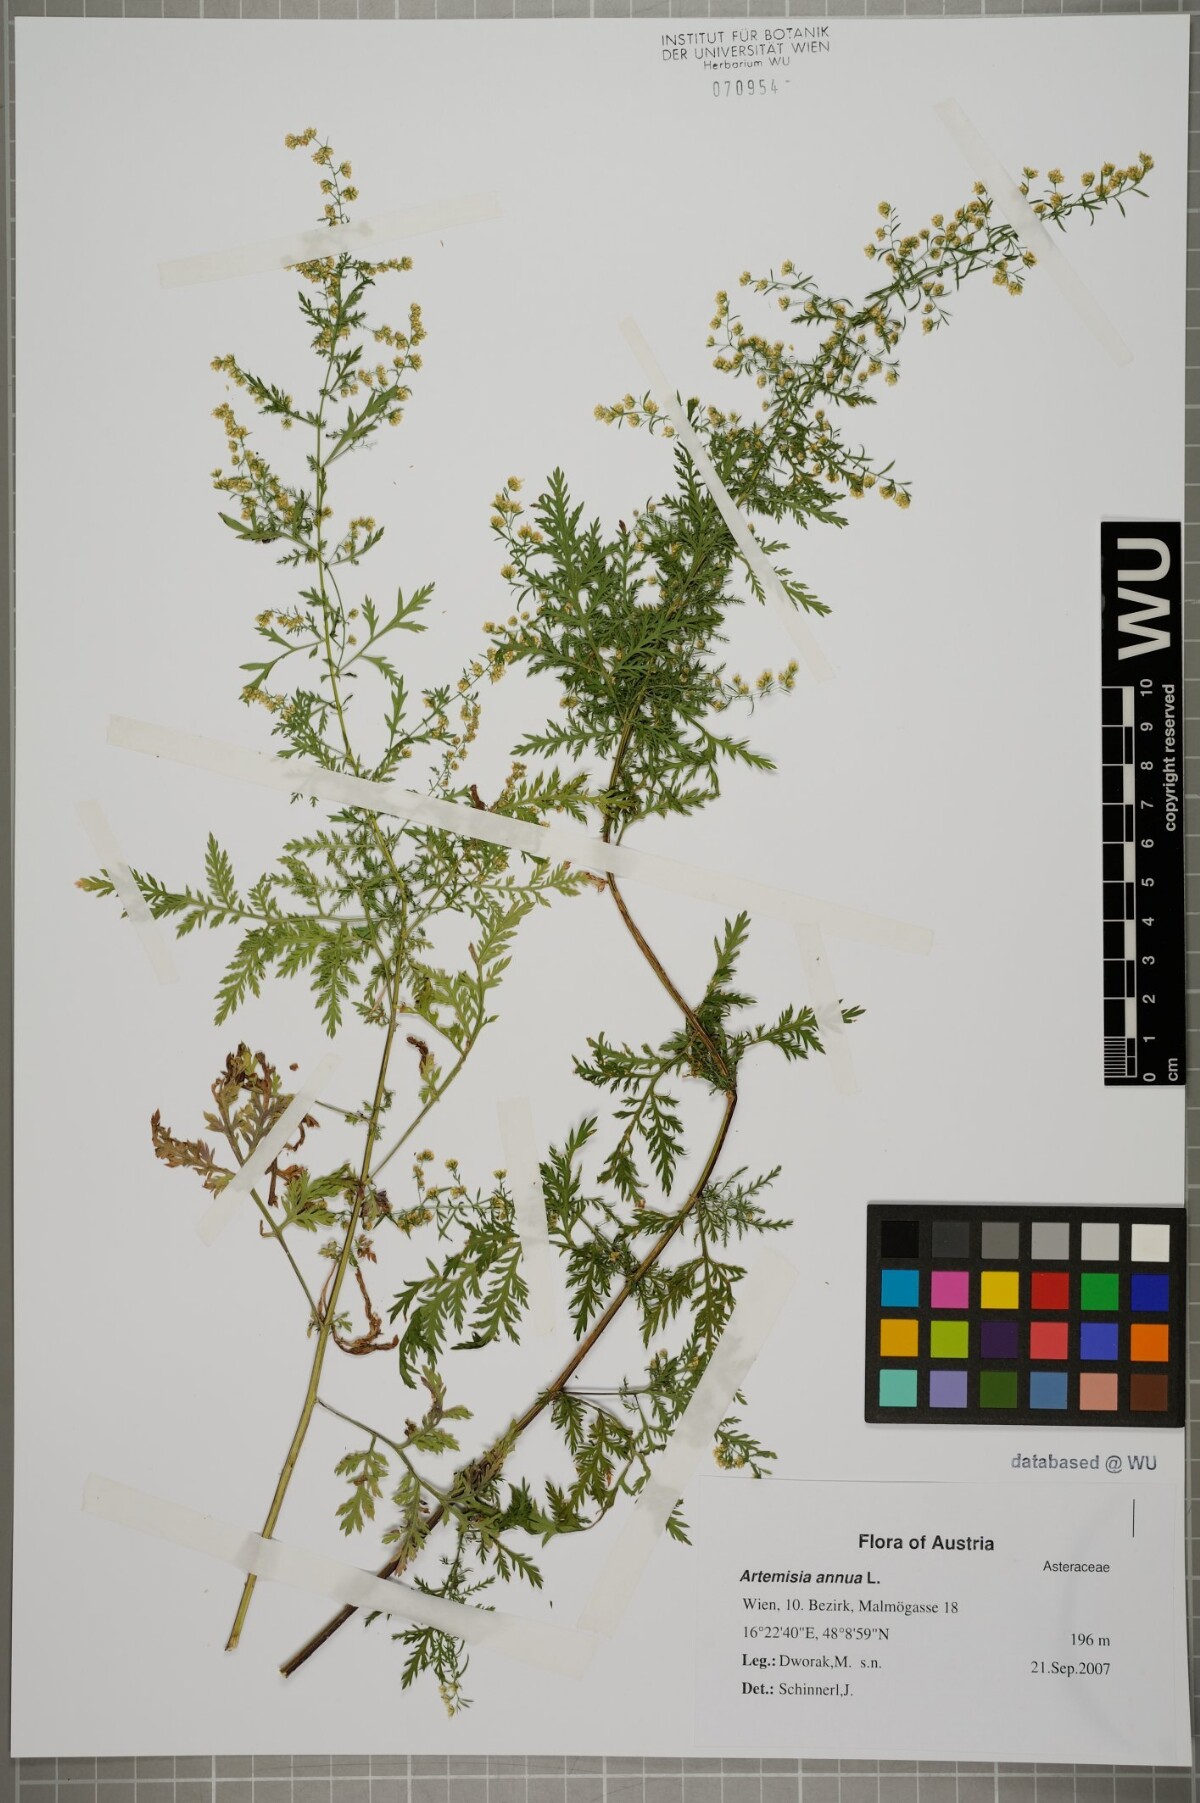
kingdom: Plantae
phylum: Tracheophyta
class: Magnoliopsida
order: Asterales
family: Asteraceae
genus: Artemisia
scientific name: Artemisia annua
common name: Sweet sagewort
